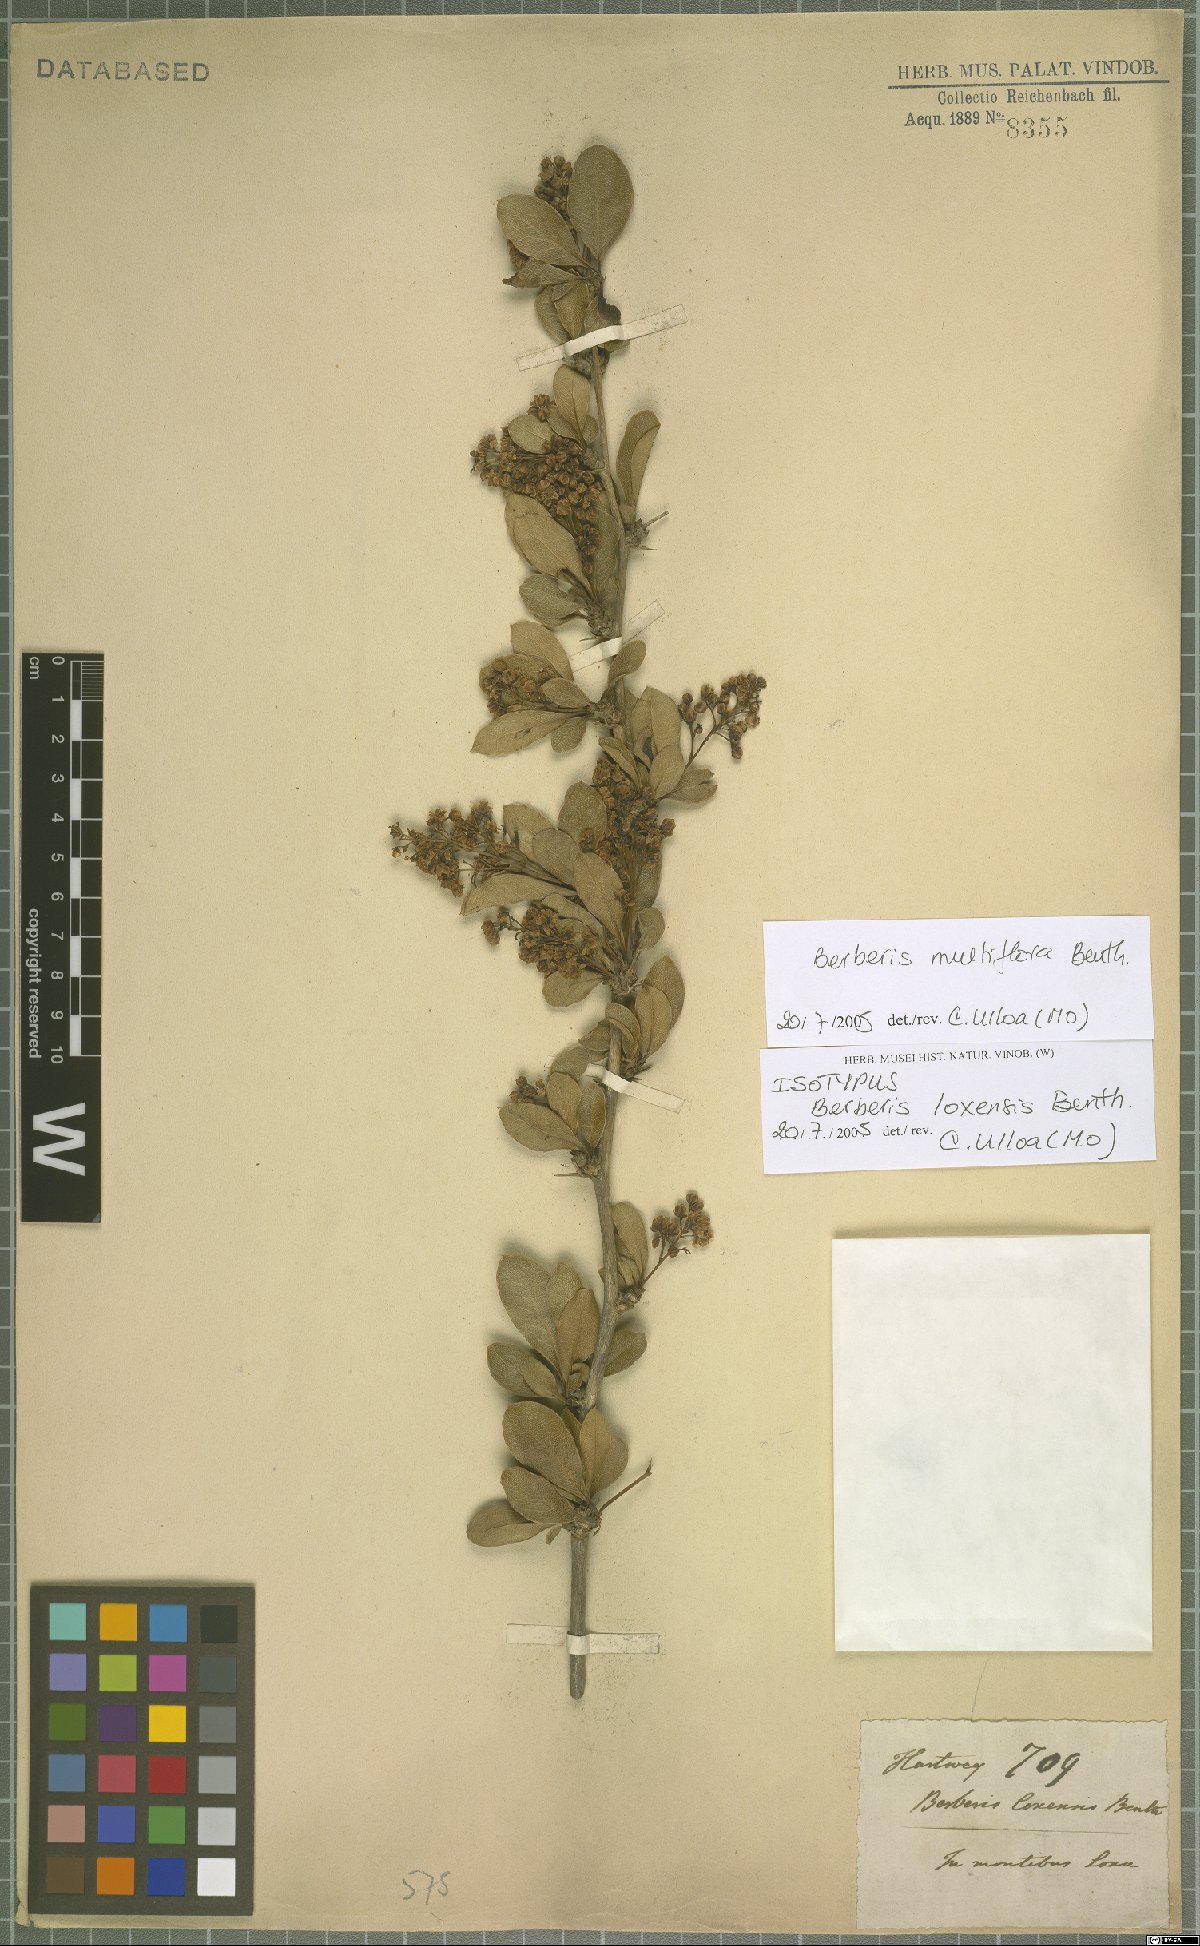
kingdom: Plantae
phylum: Tracheophyta
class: Magnoliopsida
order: Ranunculales
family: Berberidaceae
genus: Berberis
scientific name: Berberis multiflora
